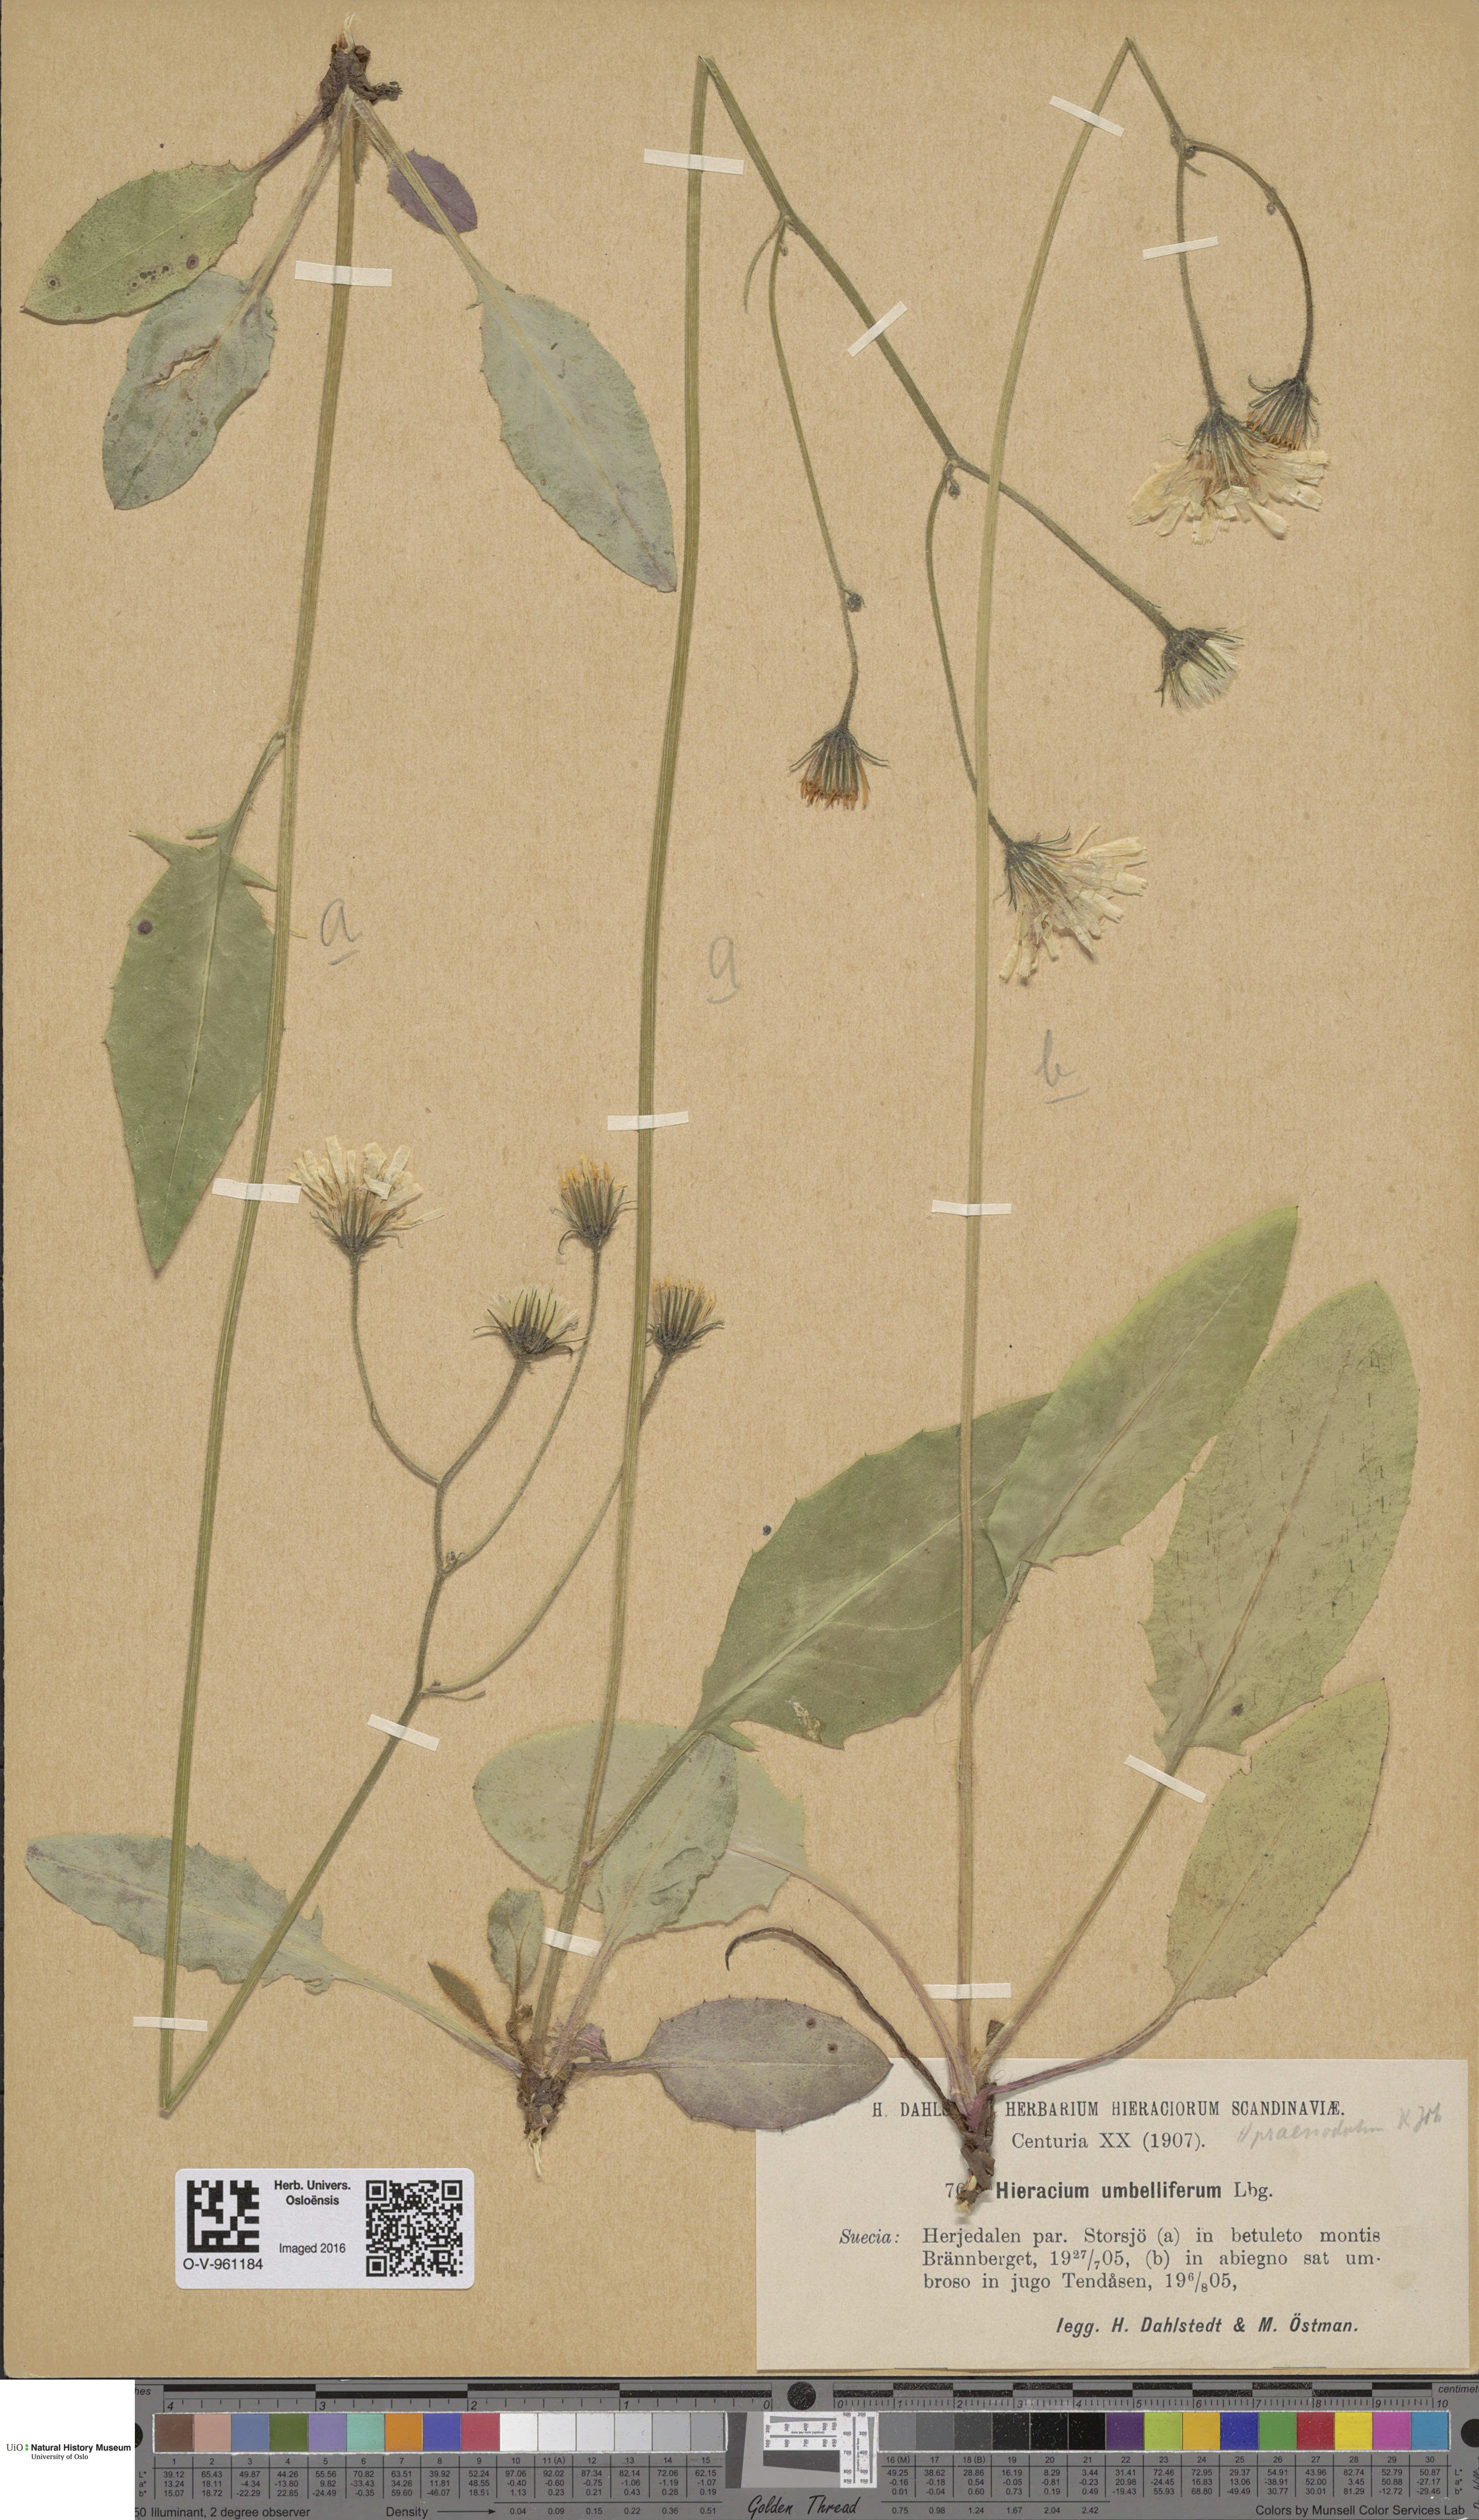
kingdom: Plantae
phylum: Tracheophyta
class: Magnoliopsida
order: Asterales
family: Asteraceae
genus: Hieracium
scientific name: Hieracium praenodatum
